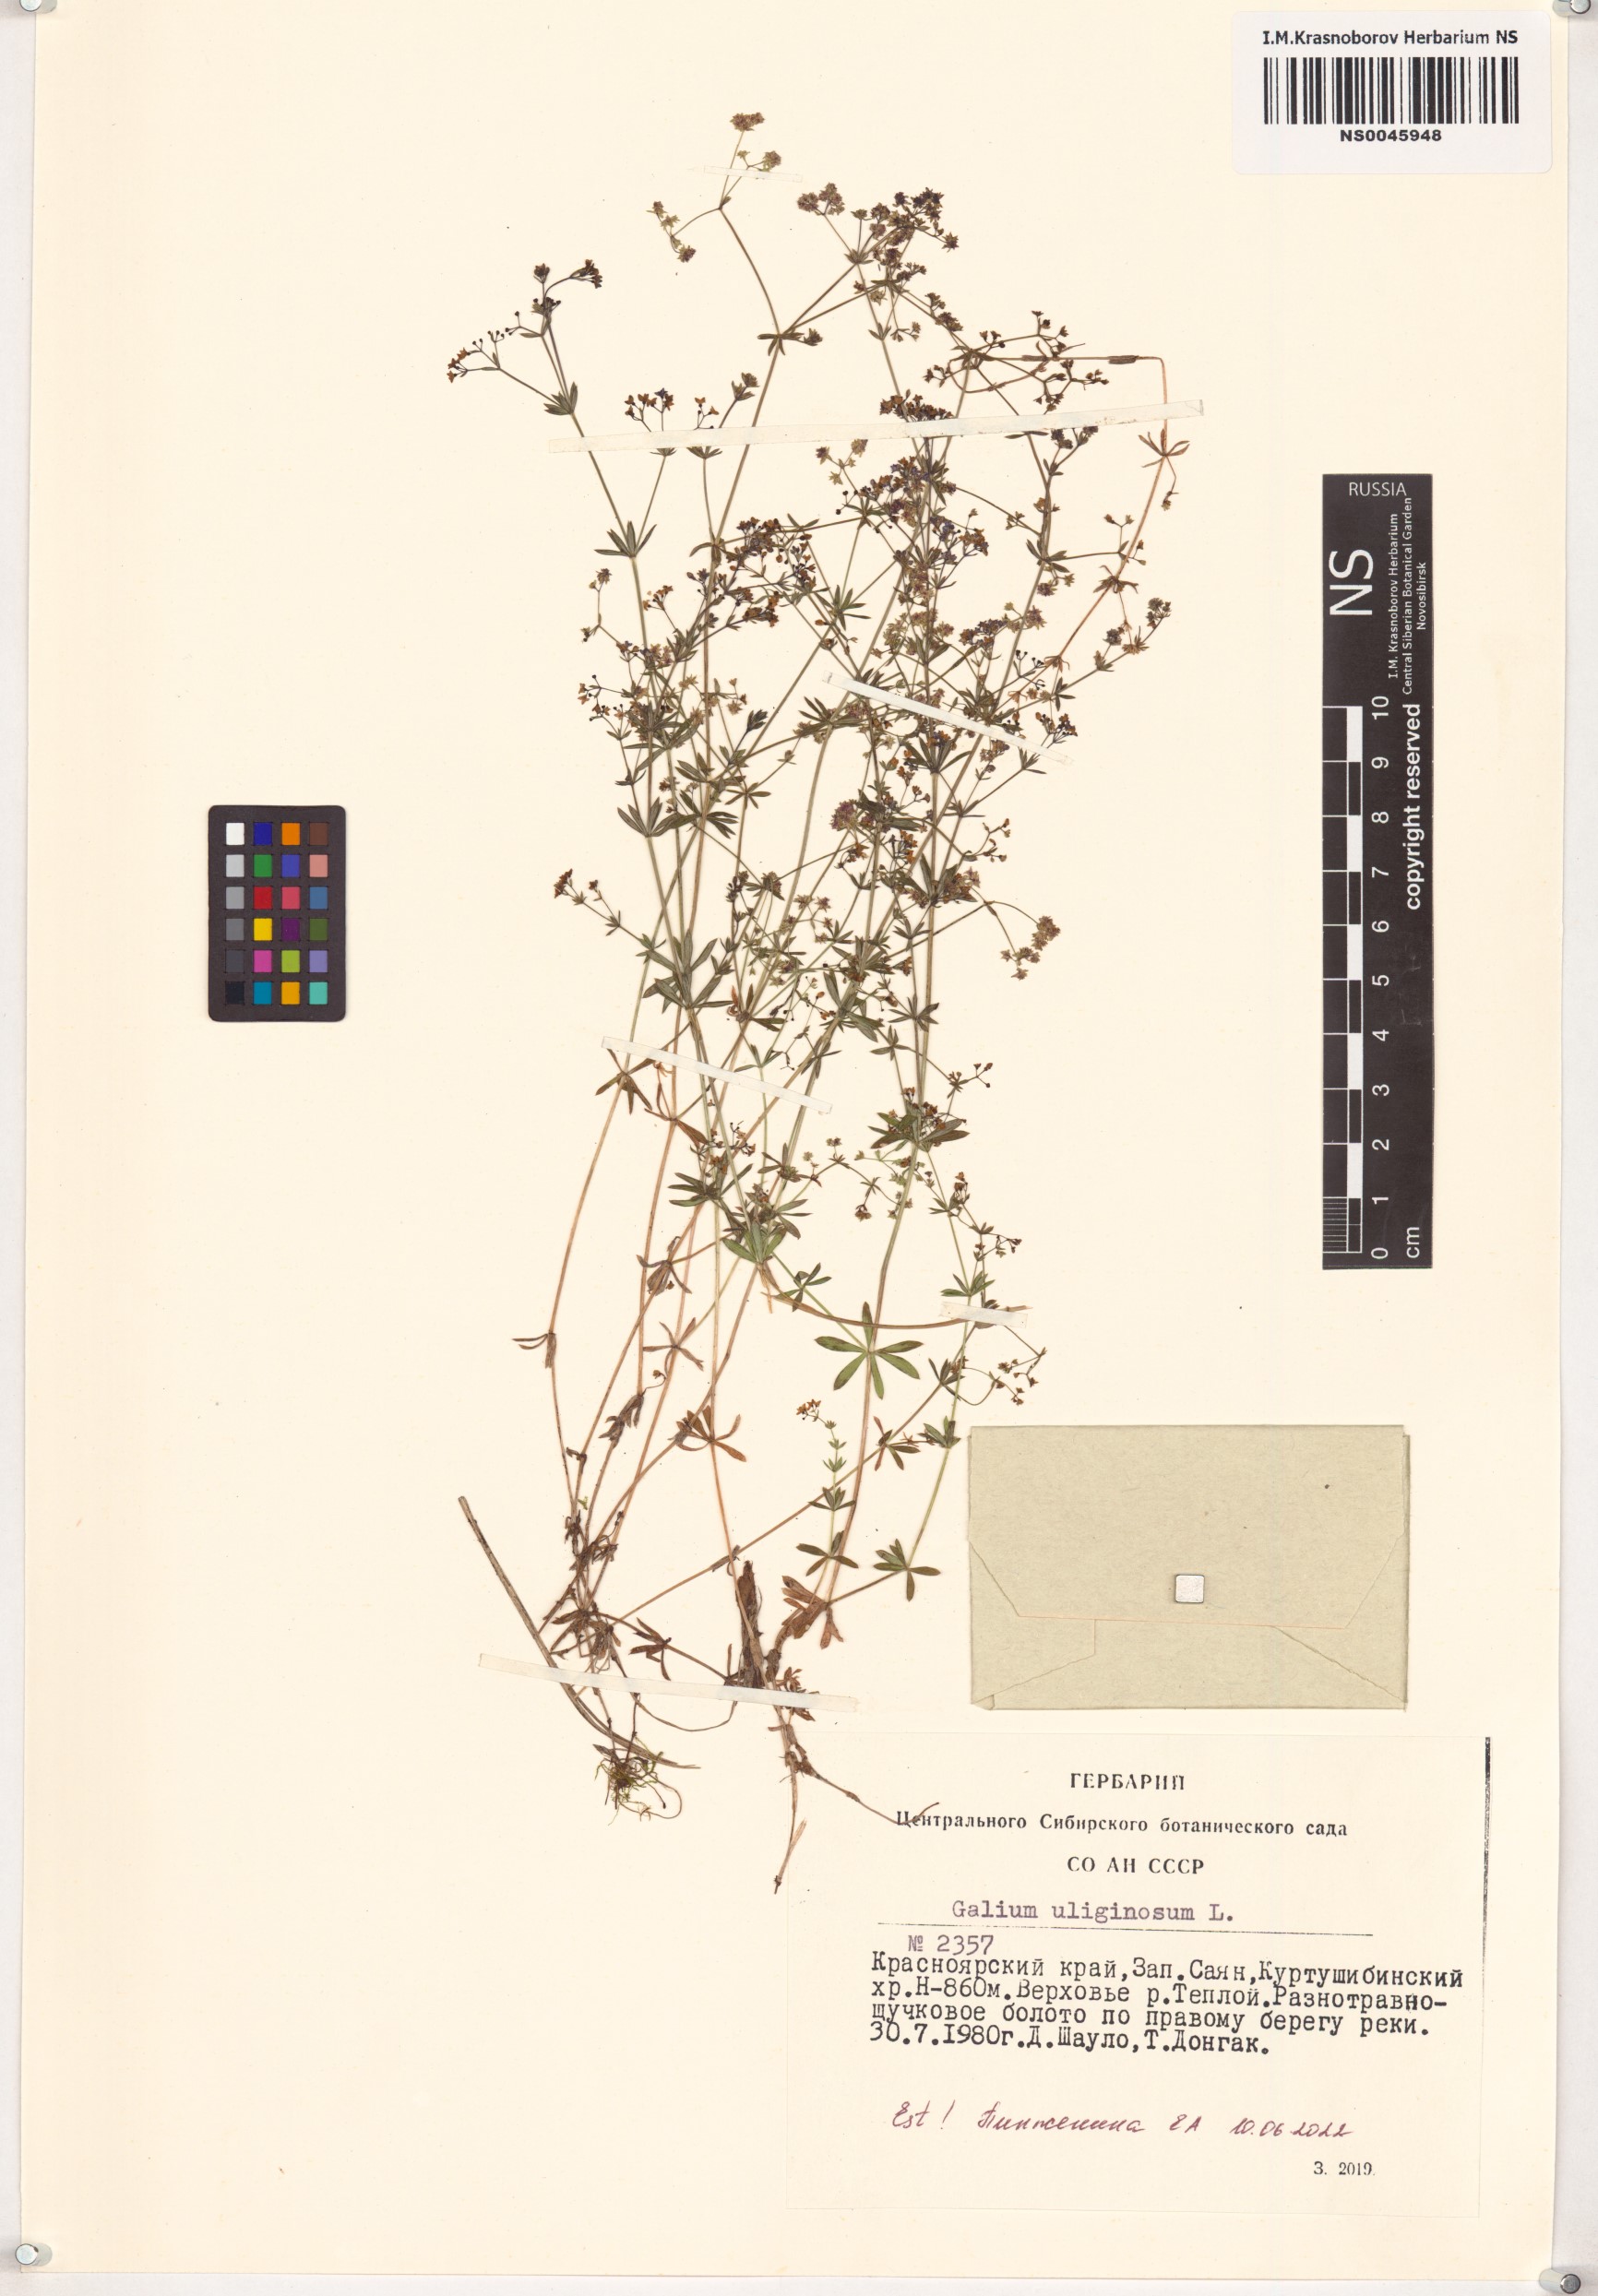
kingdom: Plantae
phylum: Tracheophyta
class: Magnoliopsida
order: Gentianales
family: Rubiaceae
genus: Galium
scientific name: Galium uliginosum
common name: Fen bedstraw
